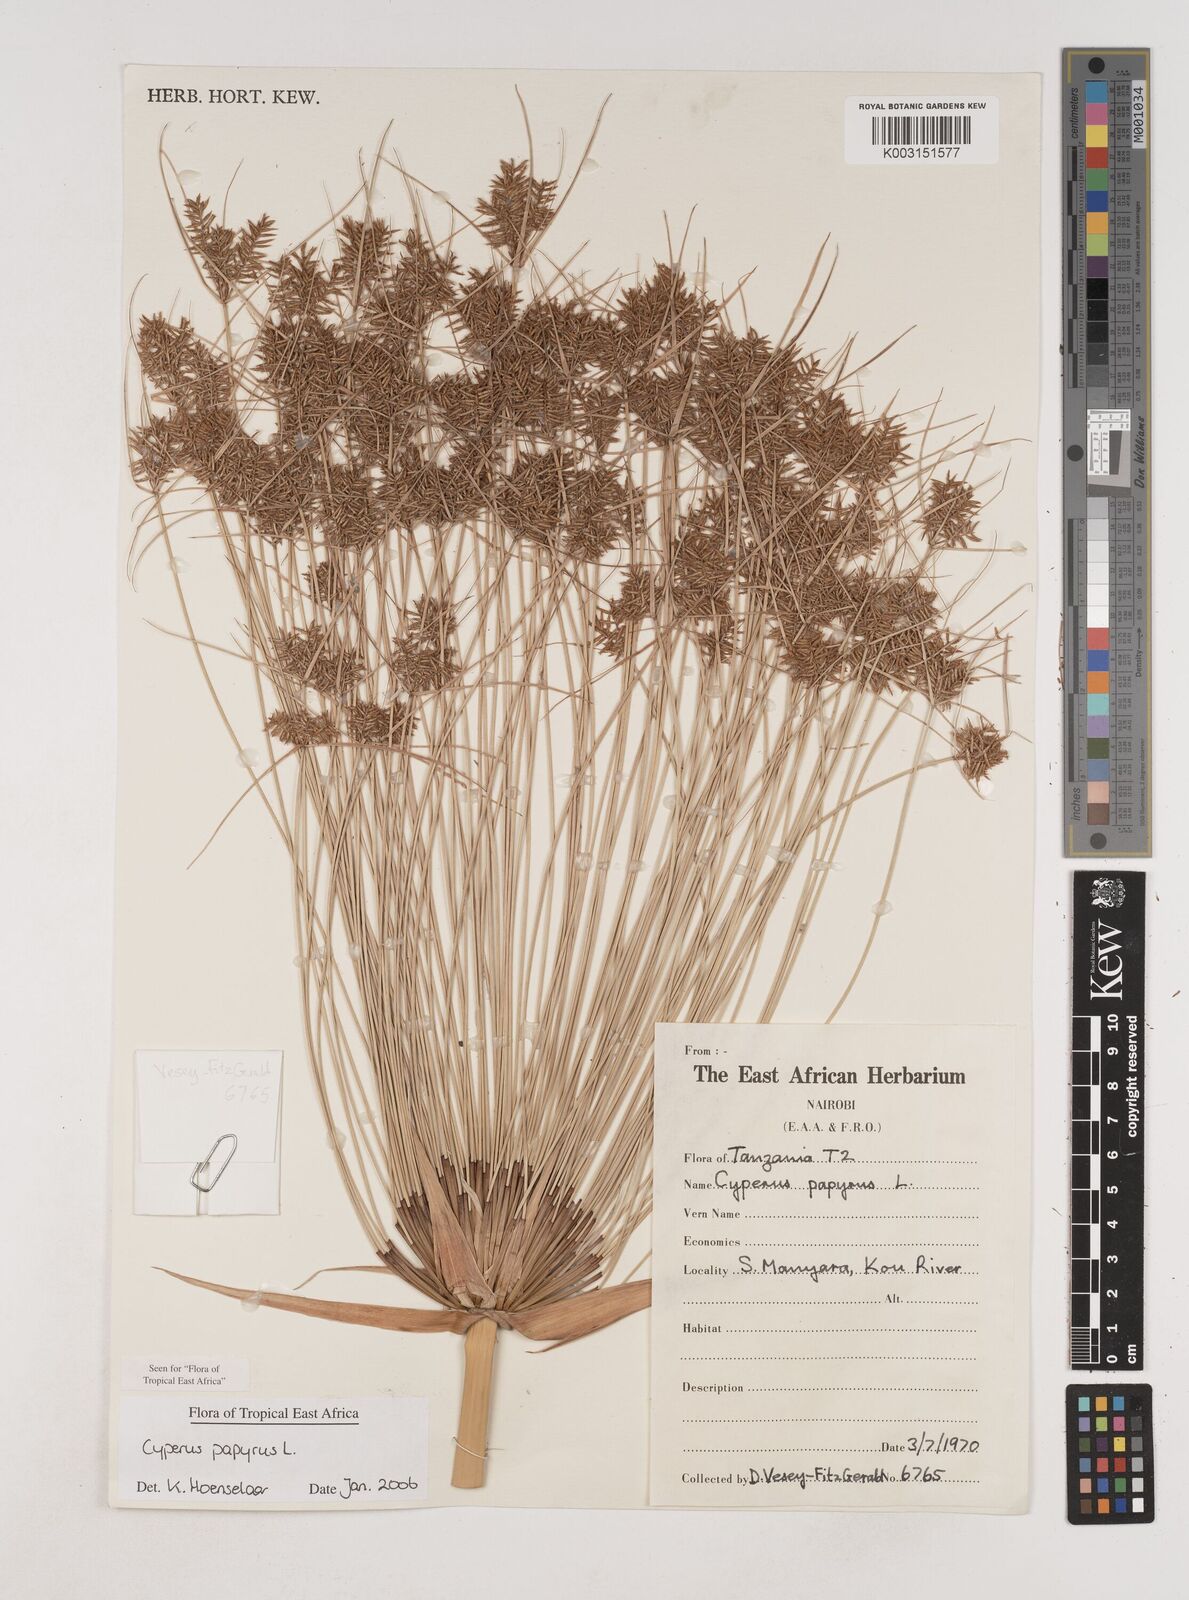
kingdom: Plantae
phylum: Tracheophyta
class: Liliopsida
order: Poales
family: Cyperaceae
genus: Cyperus
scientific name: Cyperus papyrus
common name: Papyrus
